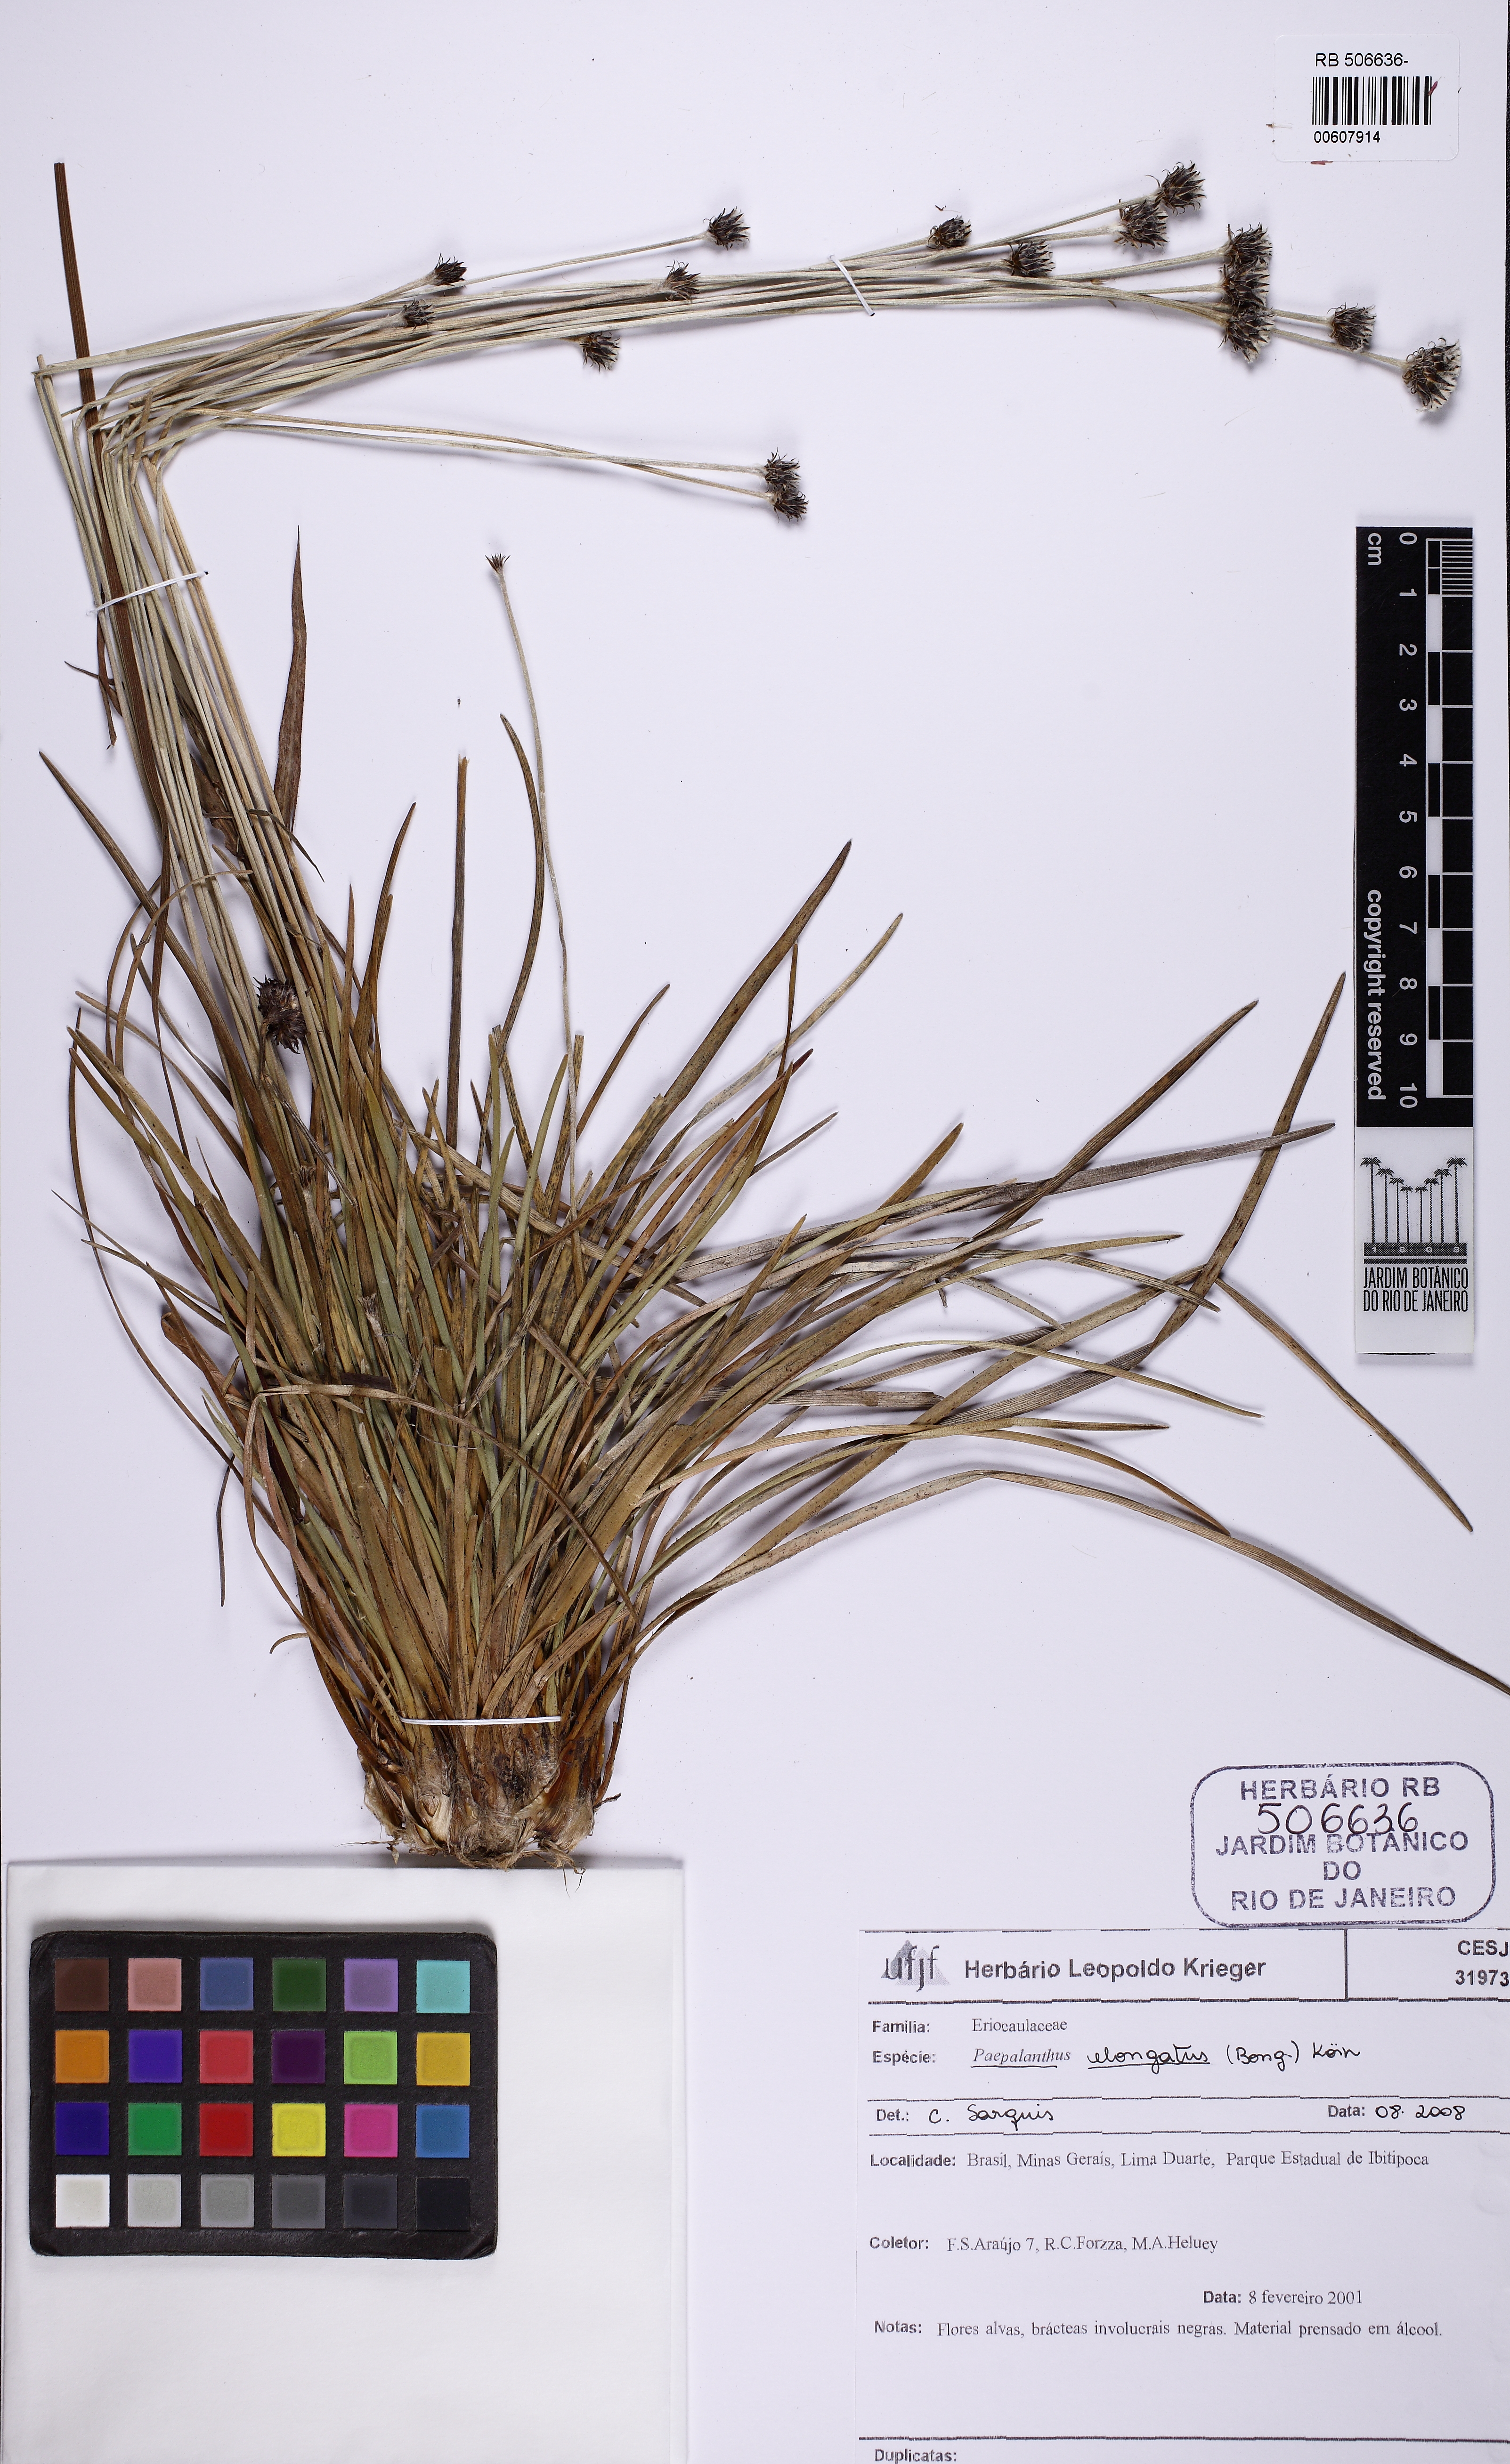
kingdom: Plantae
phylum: Tracheophyta
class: Liliopsida
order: Poales
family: Eriocaulaceae
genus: Paepalanthus
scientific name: Paepalanthus elongatus
